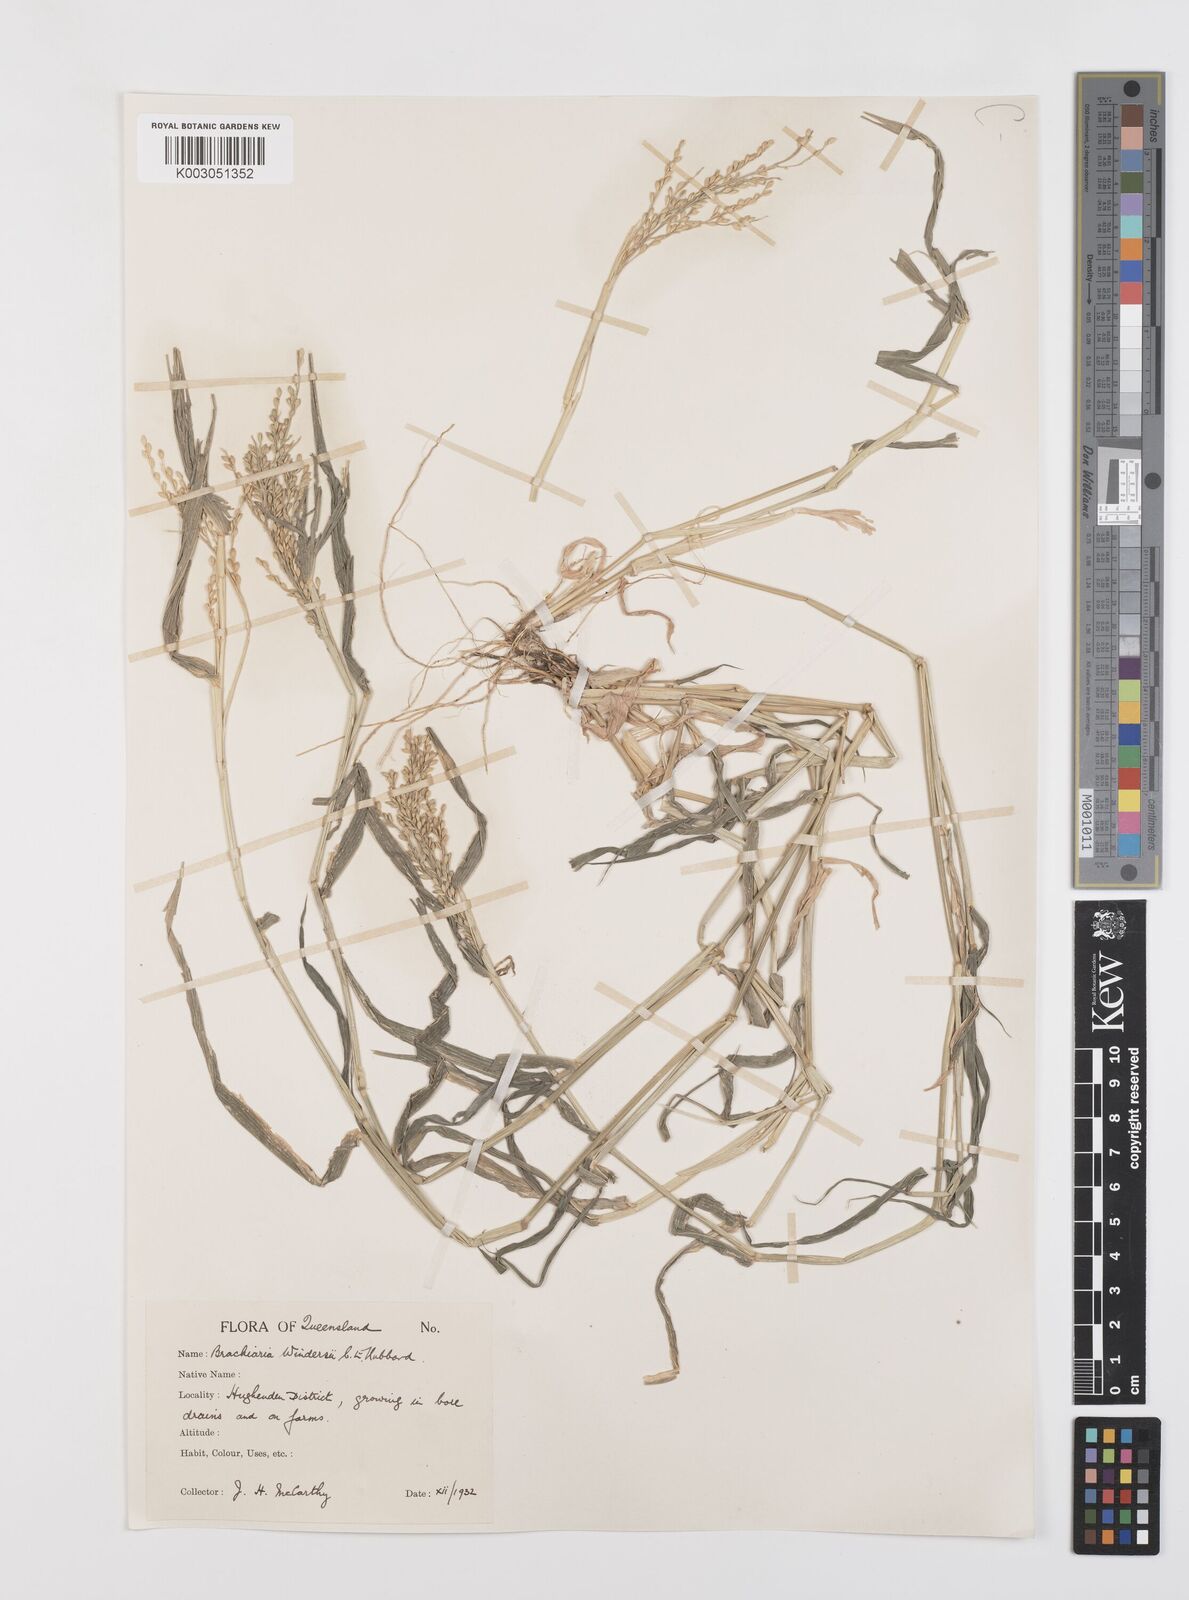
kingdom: Plantae
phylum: Tracheophyta
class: Liliopsida
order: Poales
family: Poaceae
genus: Urochloa
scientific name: Urochloa whiteana
